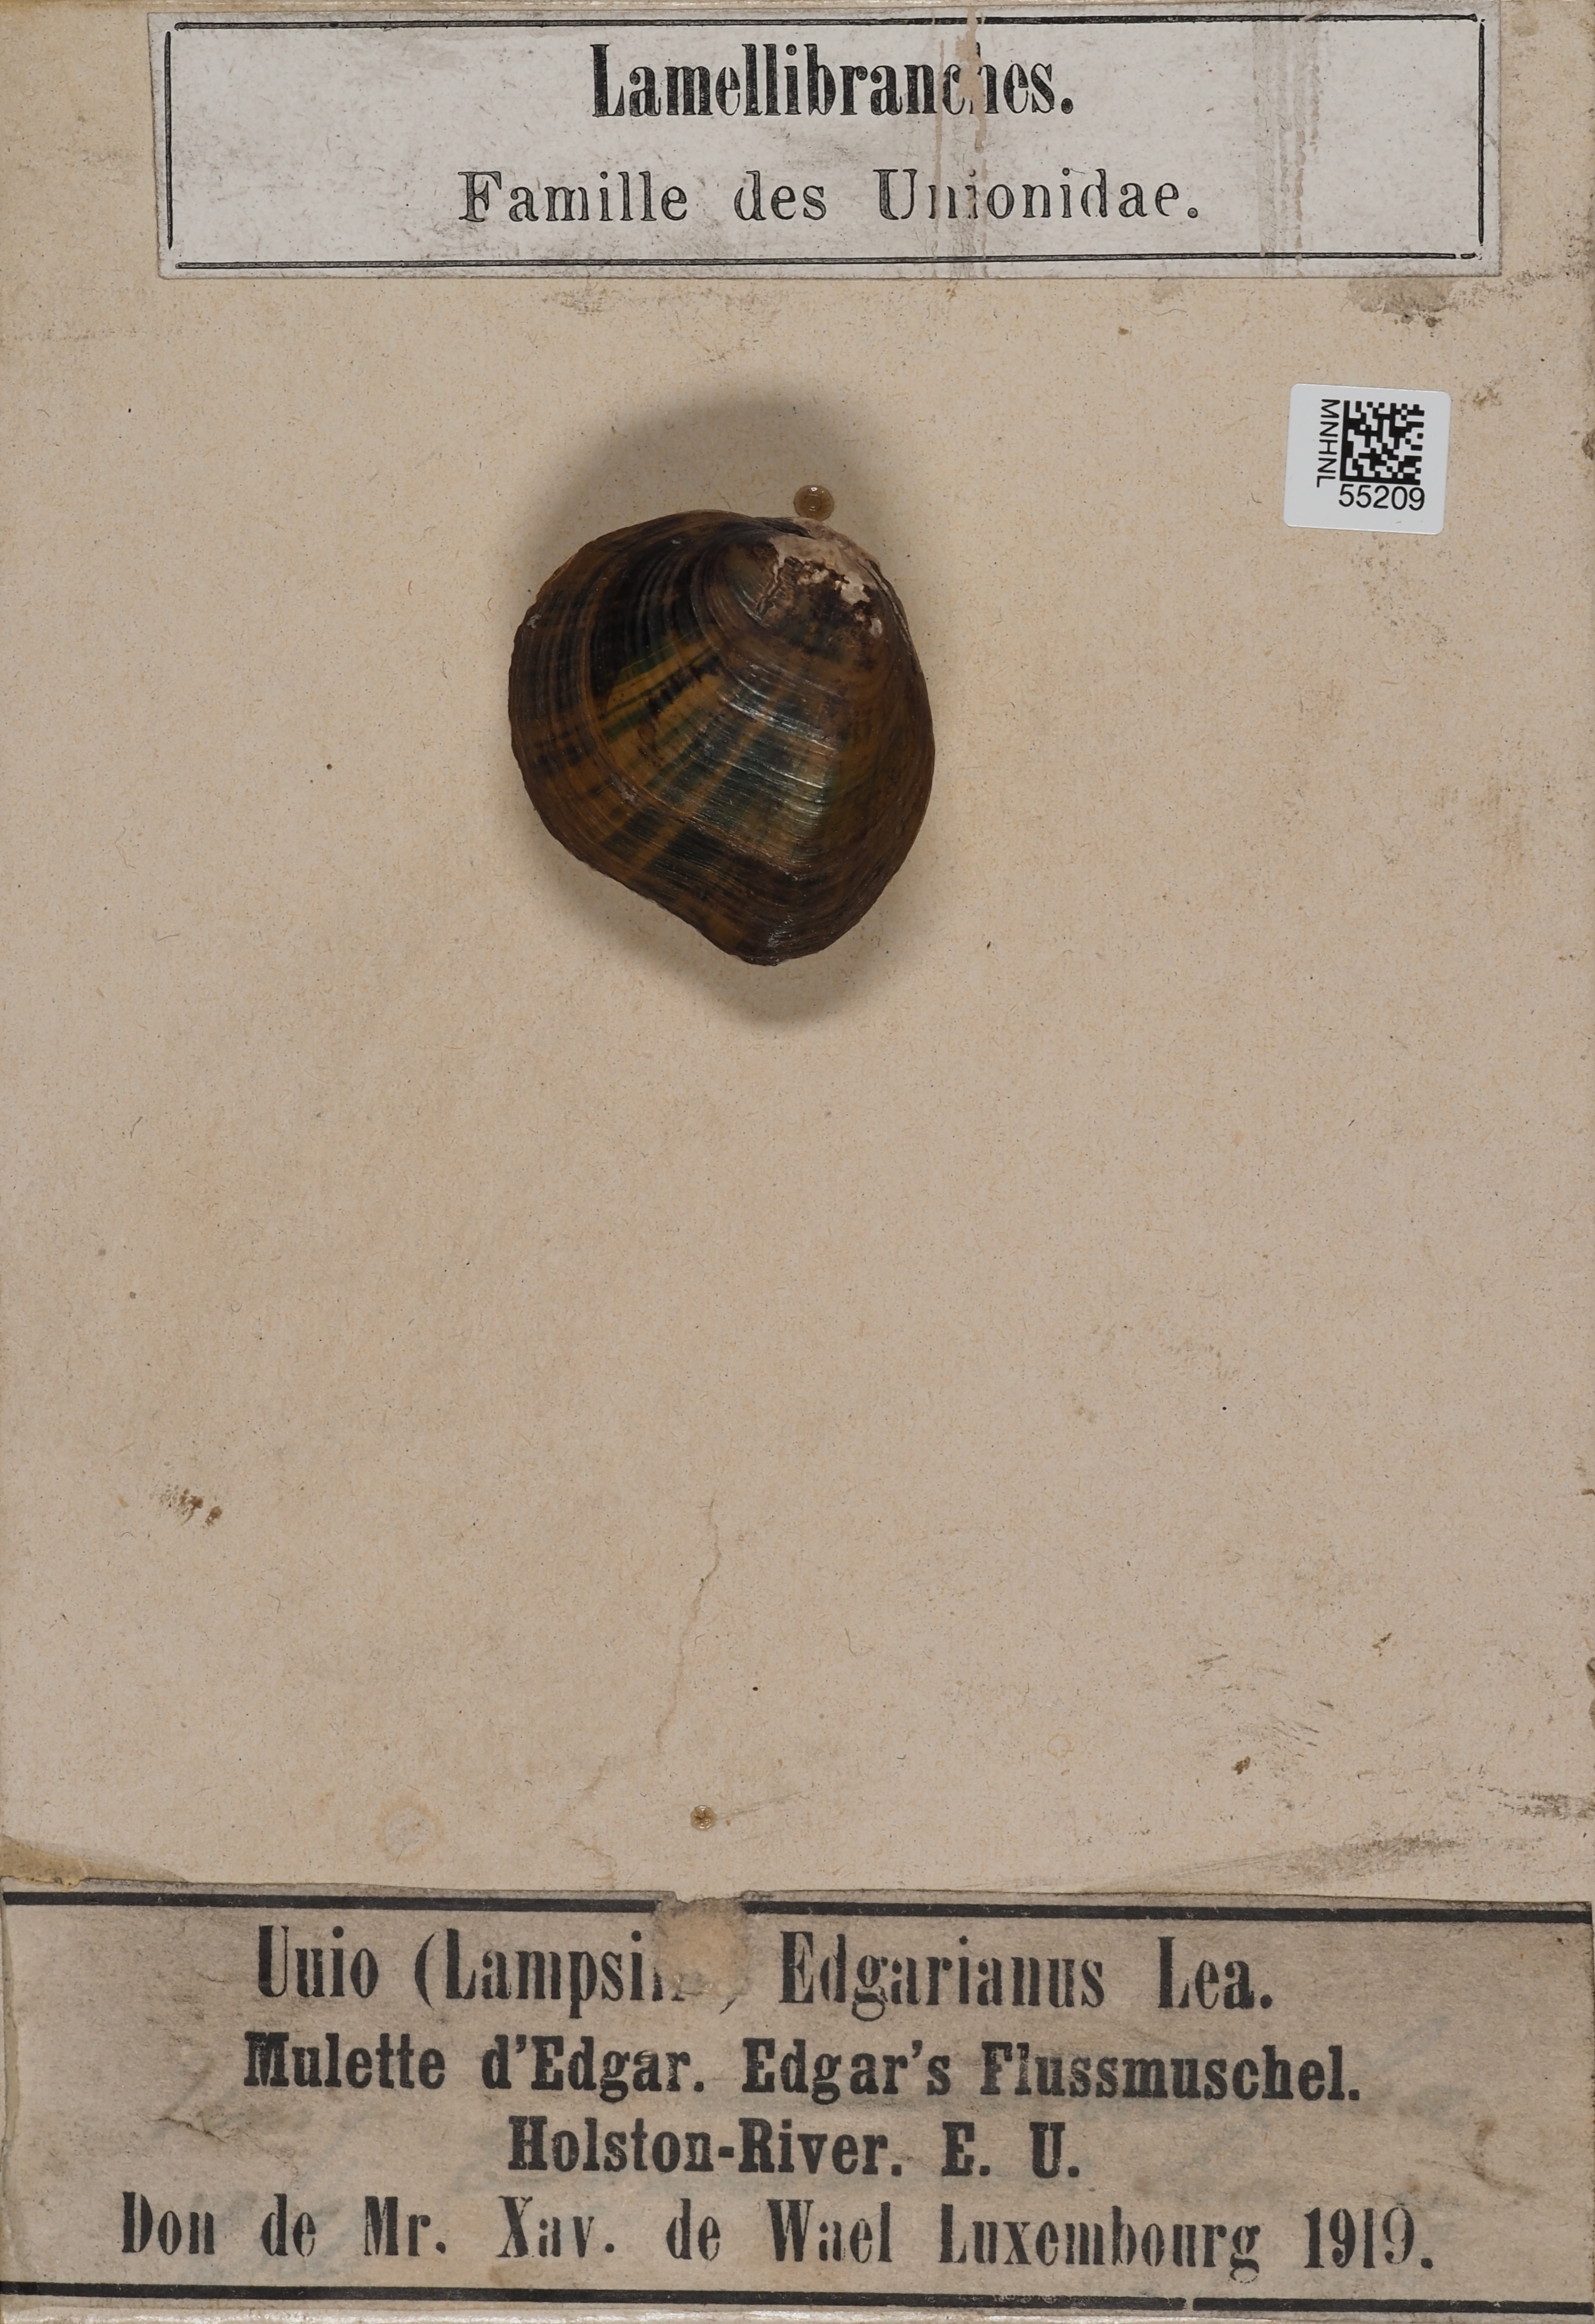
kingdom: Animalia
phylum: Mollusca
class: Bivalvia
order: Unionida
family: Unionidae
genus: Lampsilis
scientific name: Lampsilis
